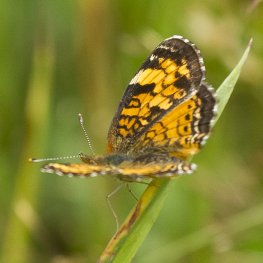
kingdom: Animalia
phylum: Arthropoda
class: Insecta
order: Lepidoptera
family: Nymphalidae
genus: Phyciodes
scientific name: Phyciodes tharos
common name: Northern Crescent
